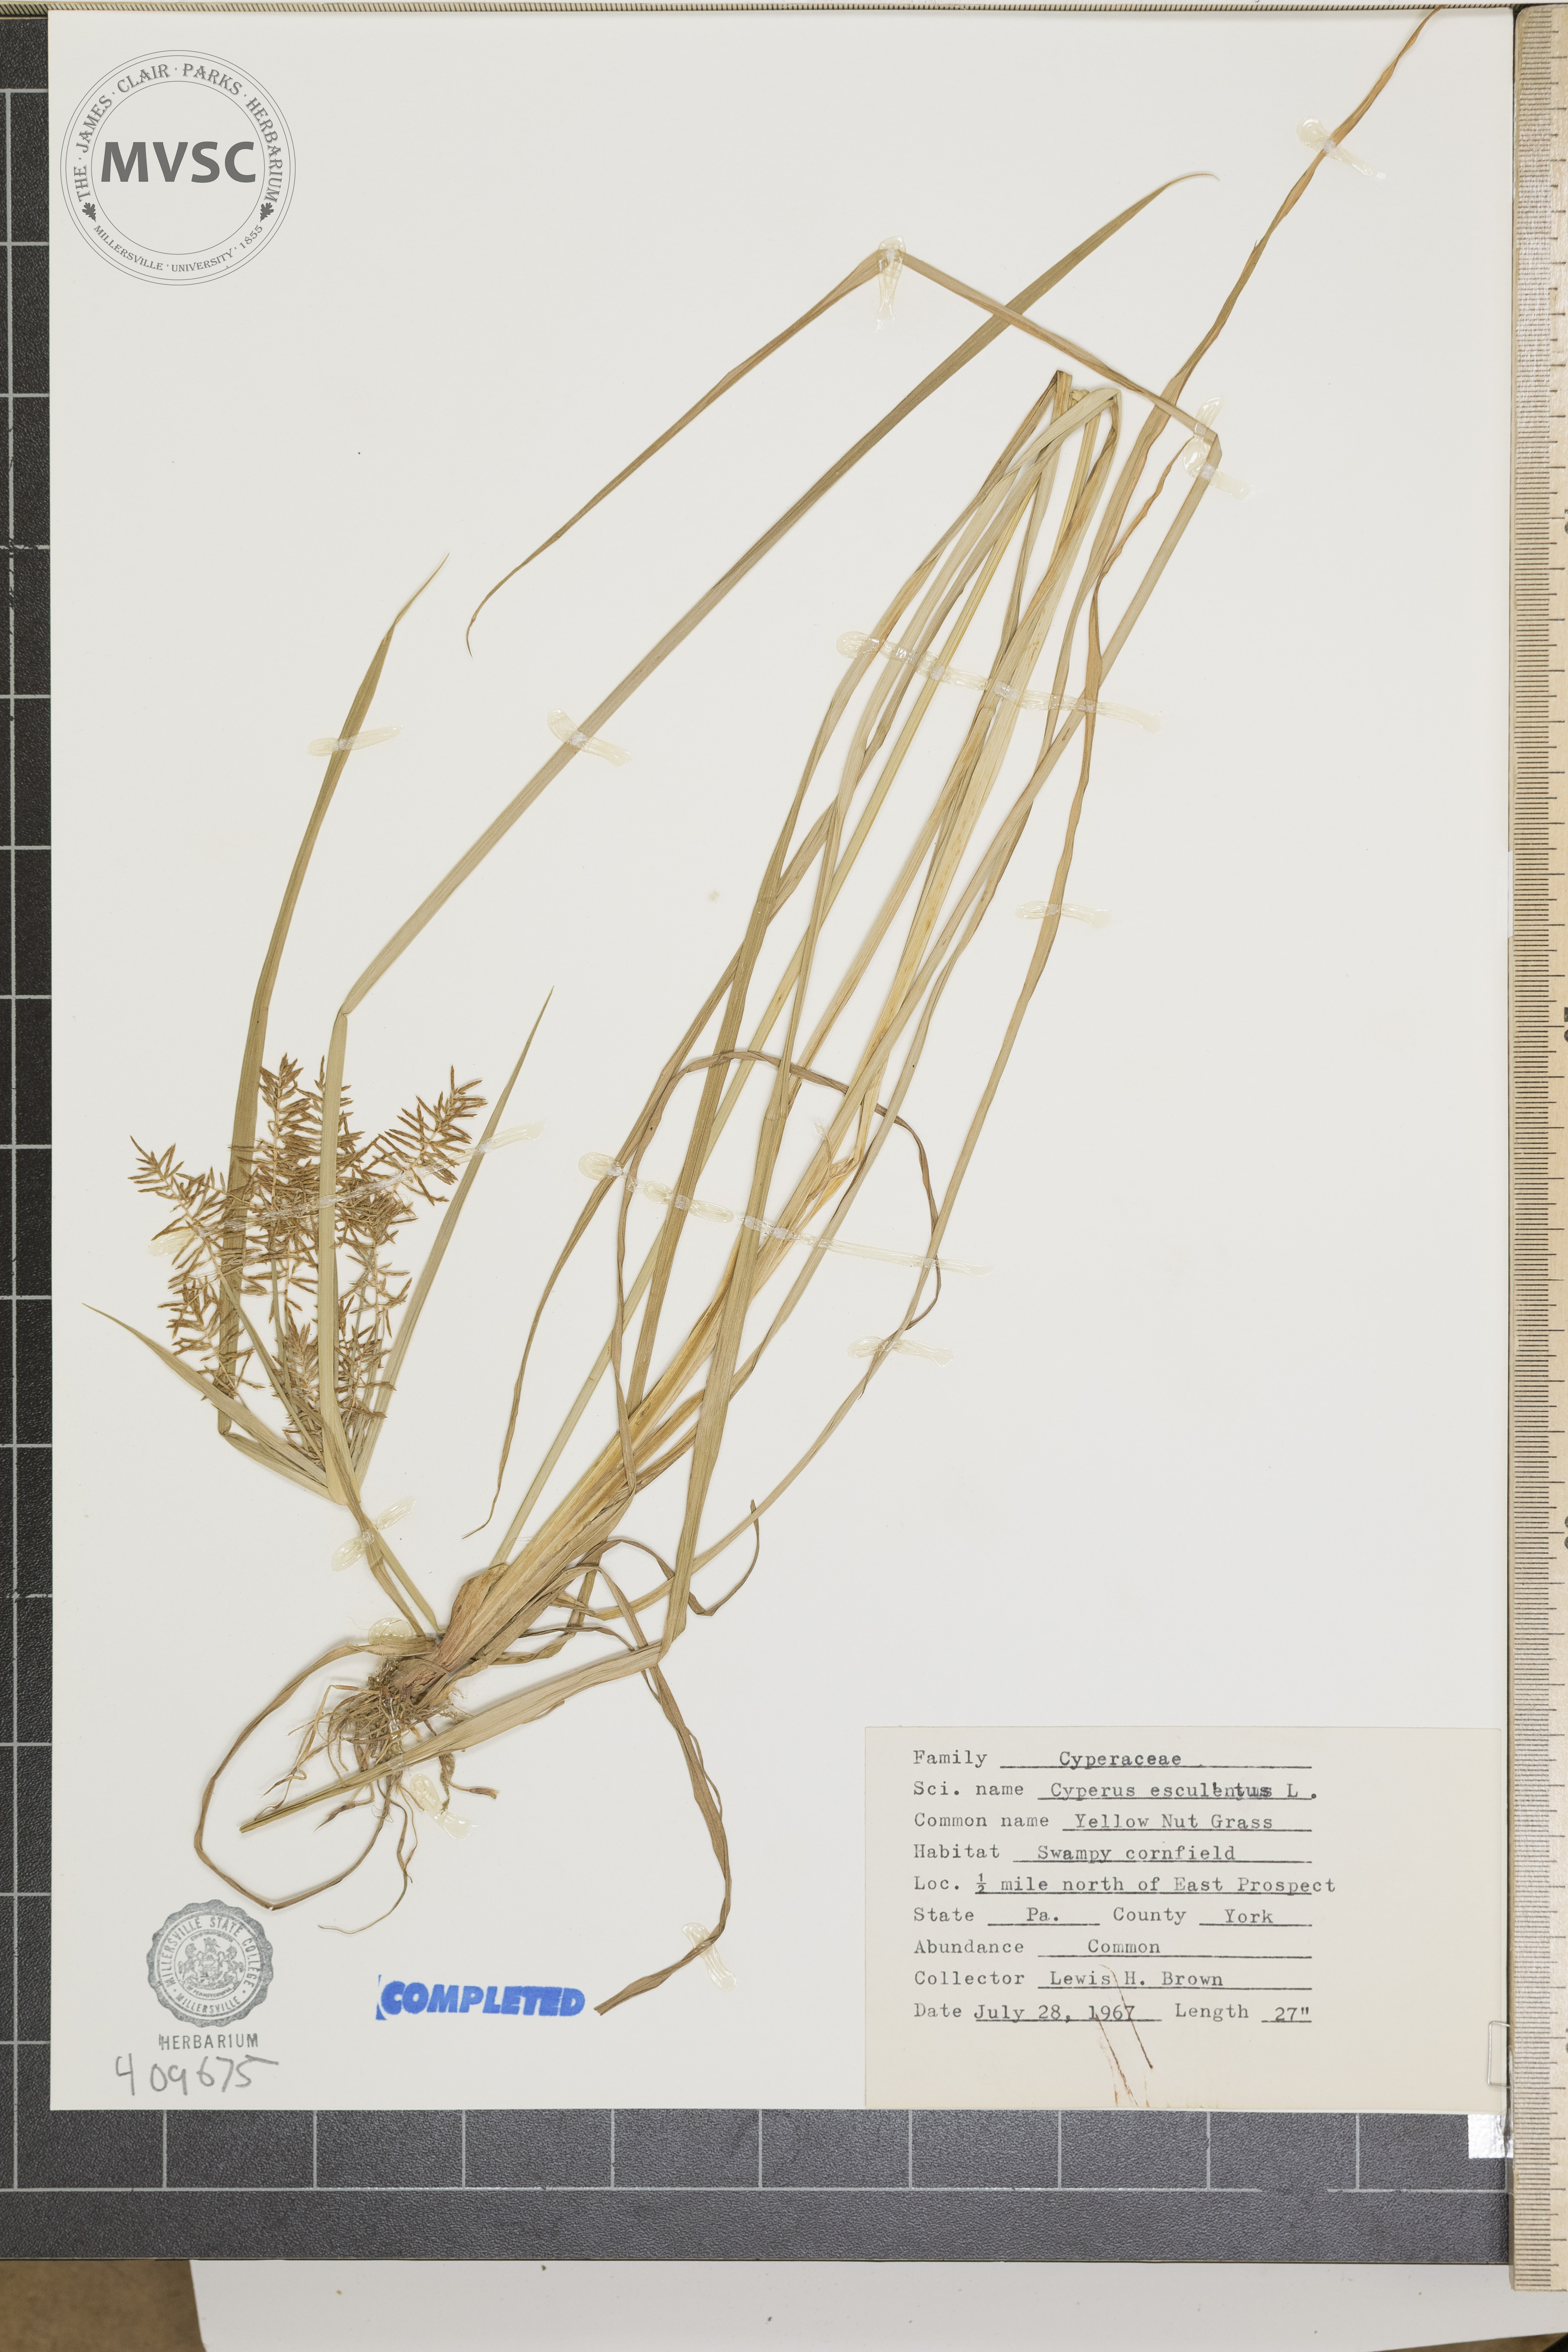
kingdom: Plantae
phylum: Tracheophyta
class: Liliopsida
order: Poales
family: Cyperaceae
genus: Cyperus
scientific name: Cyperus esculentus
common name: Yellow nutsedge
